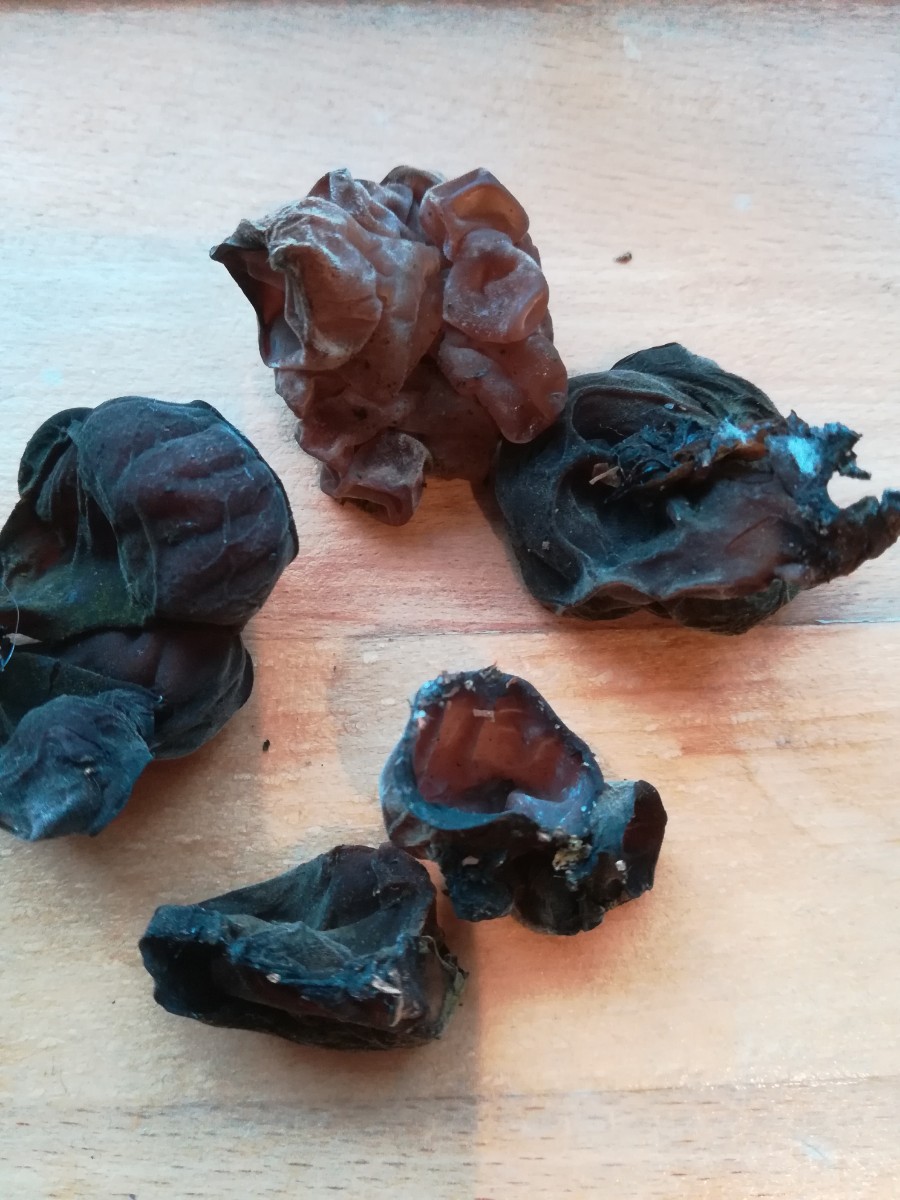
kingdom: Fungi
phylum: Basidiomycota
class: Agaricomycetes
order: Auriculariales
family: Auriculariaceae
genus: Auricularia
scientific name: Auricularia auricula-judae
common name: almindelig judasøre
